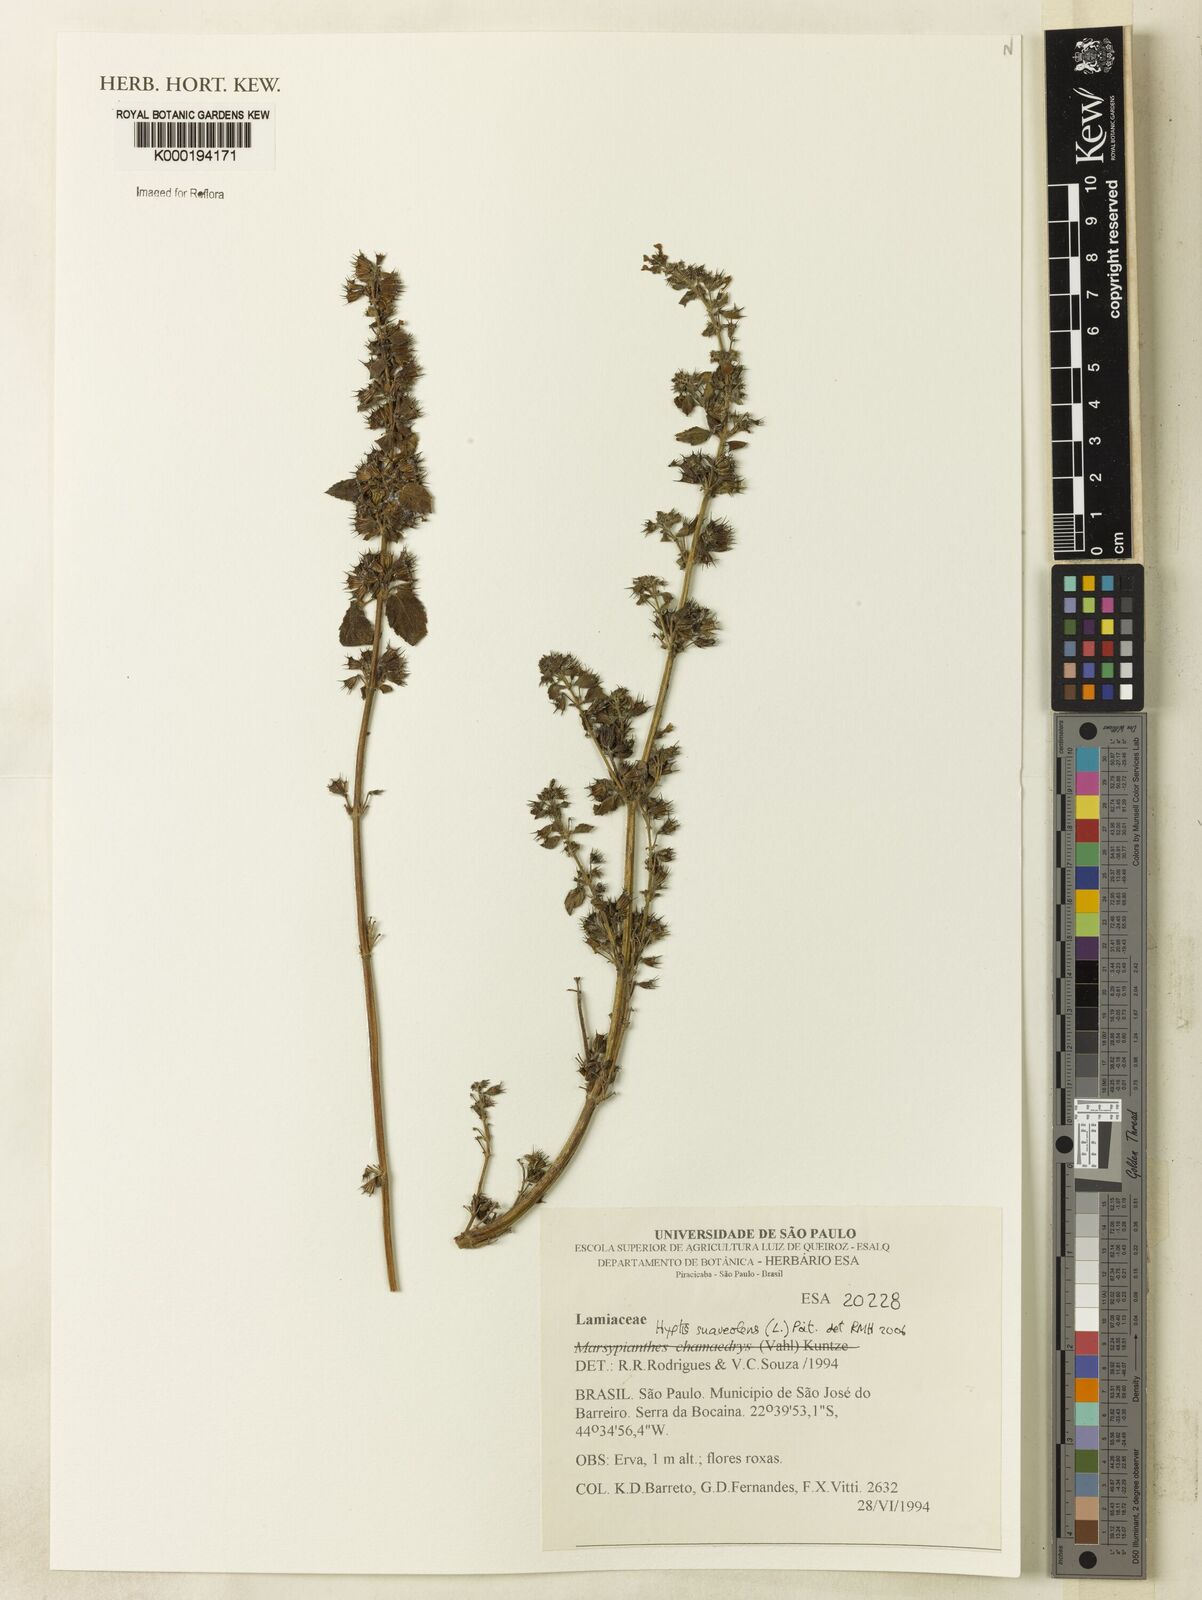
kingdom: Plantae
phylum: Tracheophyta
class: Magnoliopsida
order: Lamiales
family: Lamiaceae
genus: Mesosphaerum
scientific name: Mesosphaerum suaveolens
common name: Pignut
